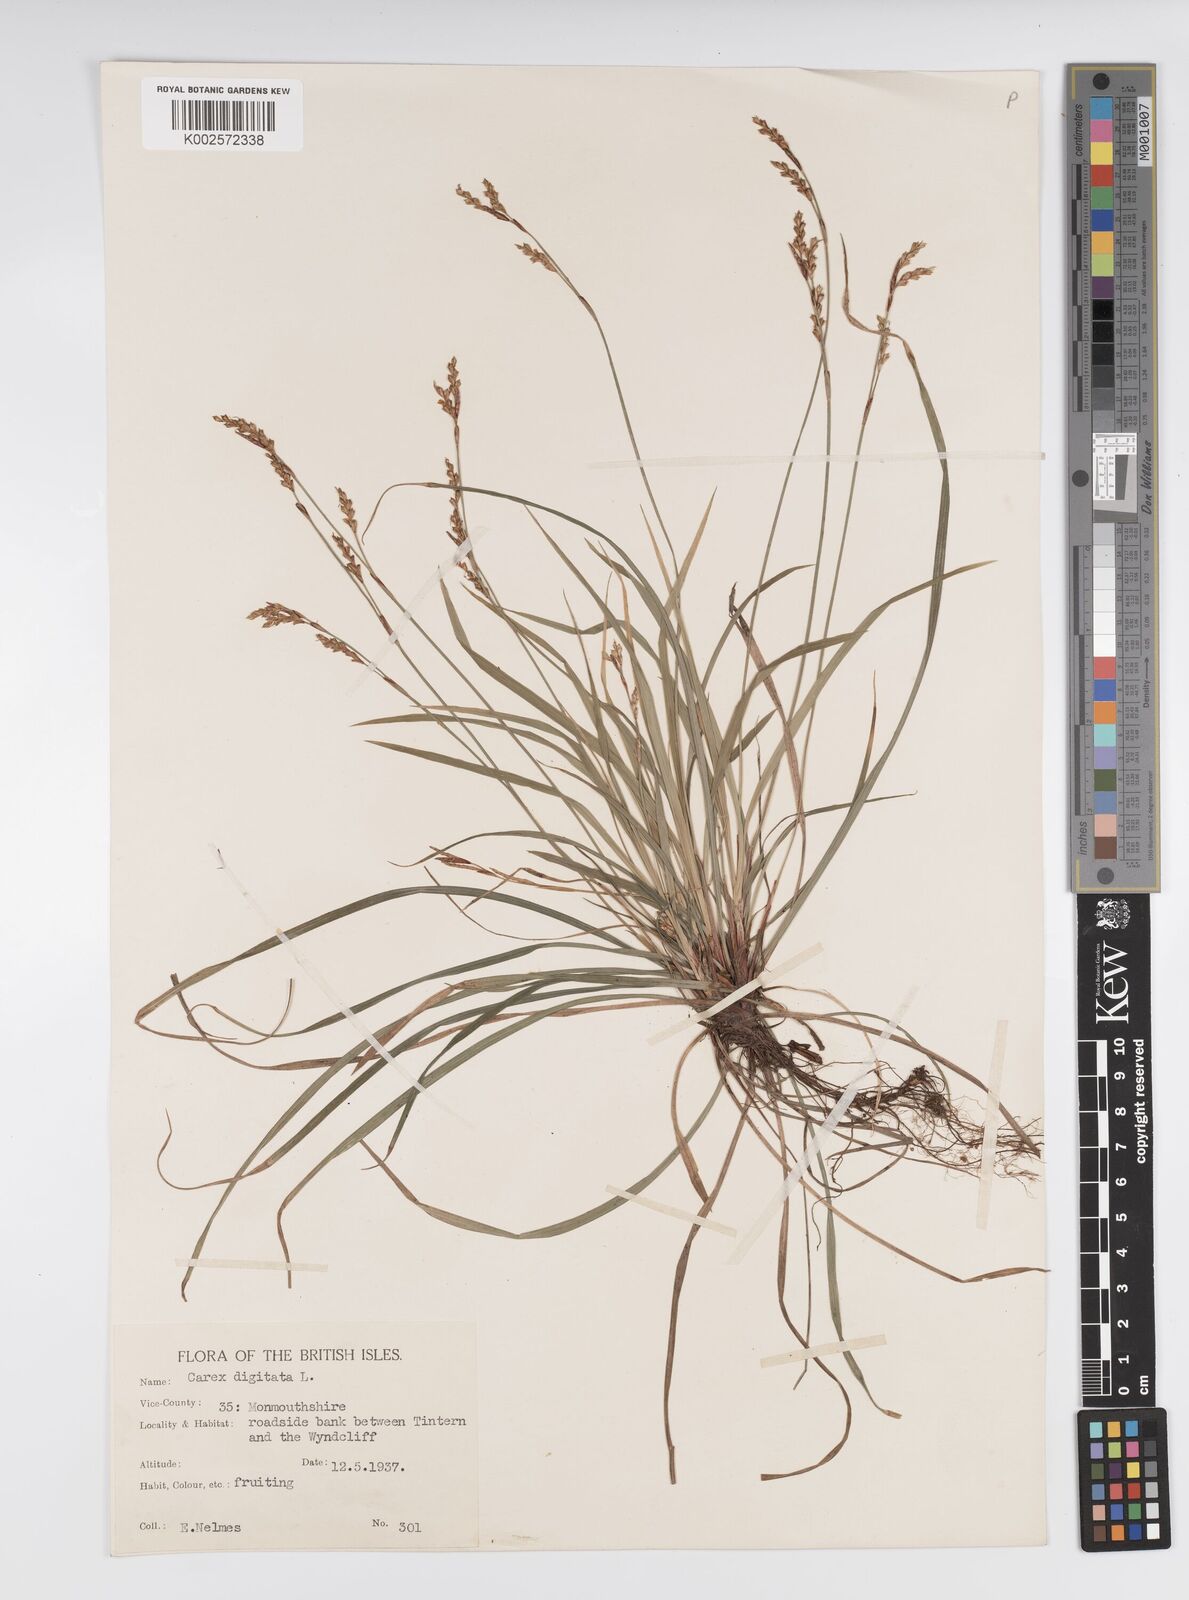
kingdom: Plantae
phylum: Tracheophyta
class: Liliopsida
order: Poales
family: Cyperaceae
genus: Carex
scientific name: Carex digitata
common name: Fingered sedge
